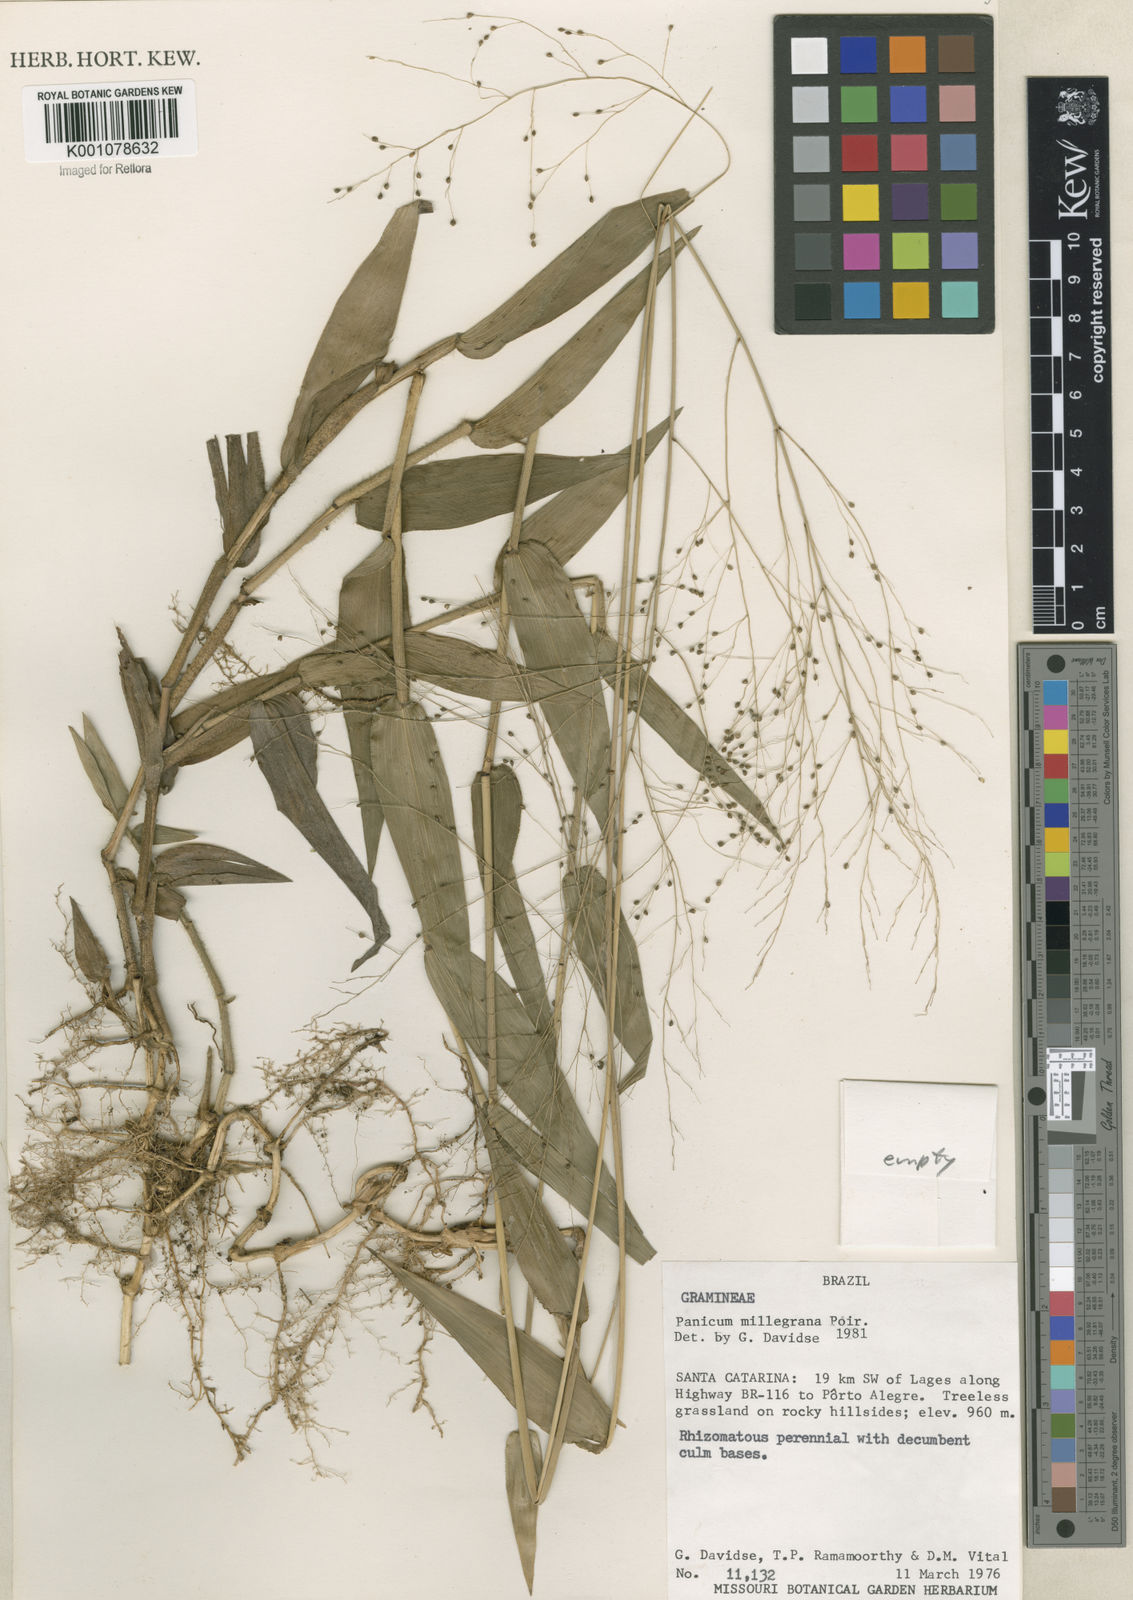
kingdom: Plantae
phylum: Tracheophyta
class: Liliopsida
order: Poales
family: Poaceae
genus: Panicum
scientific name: Panicum millegrana
